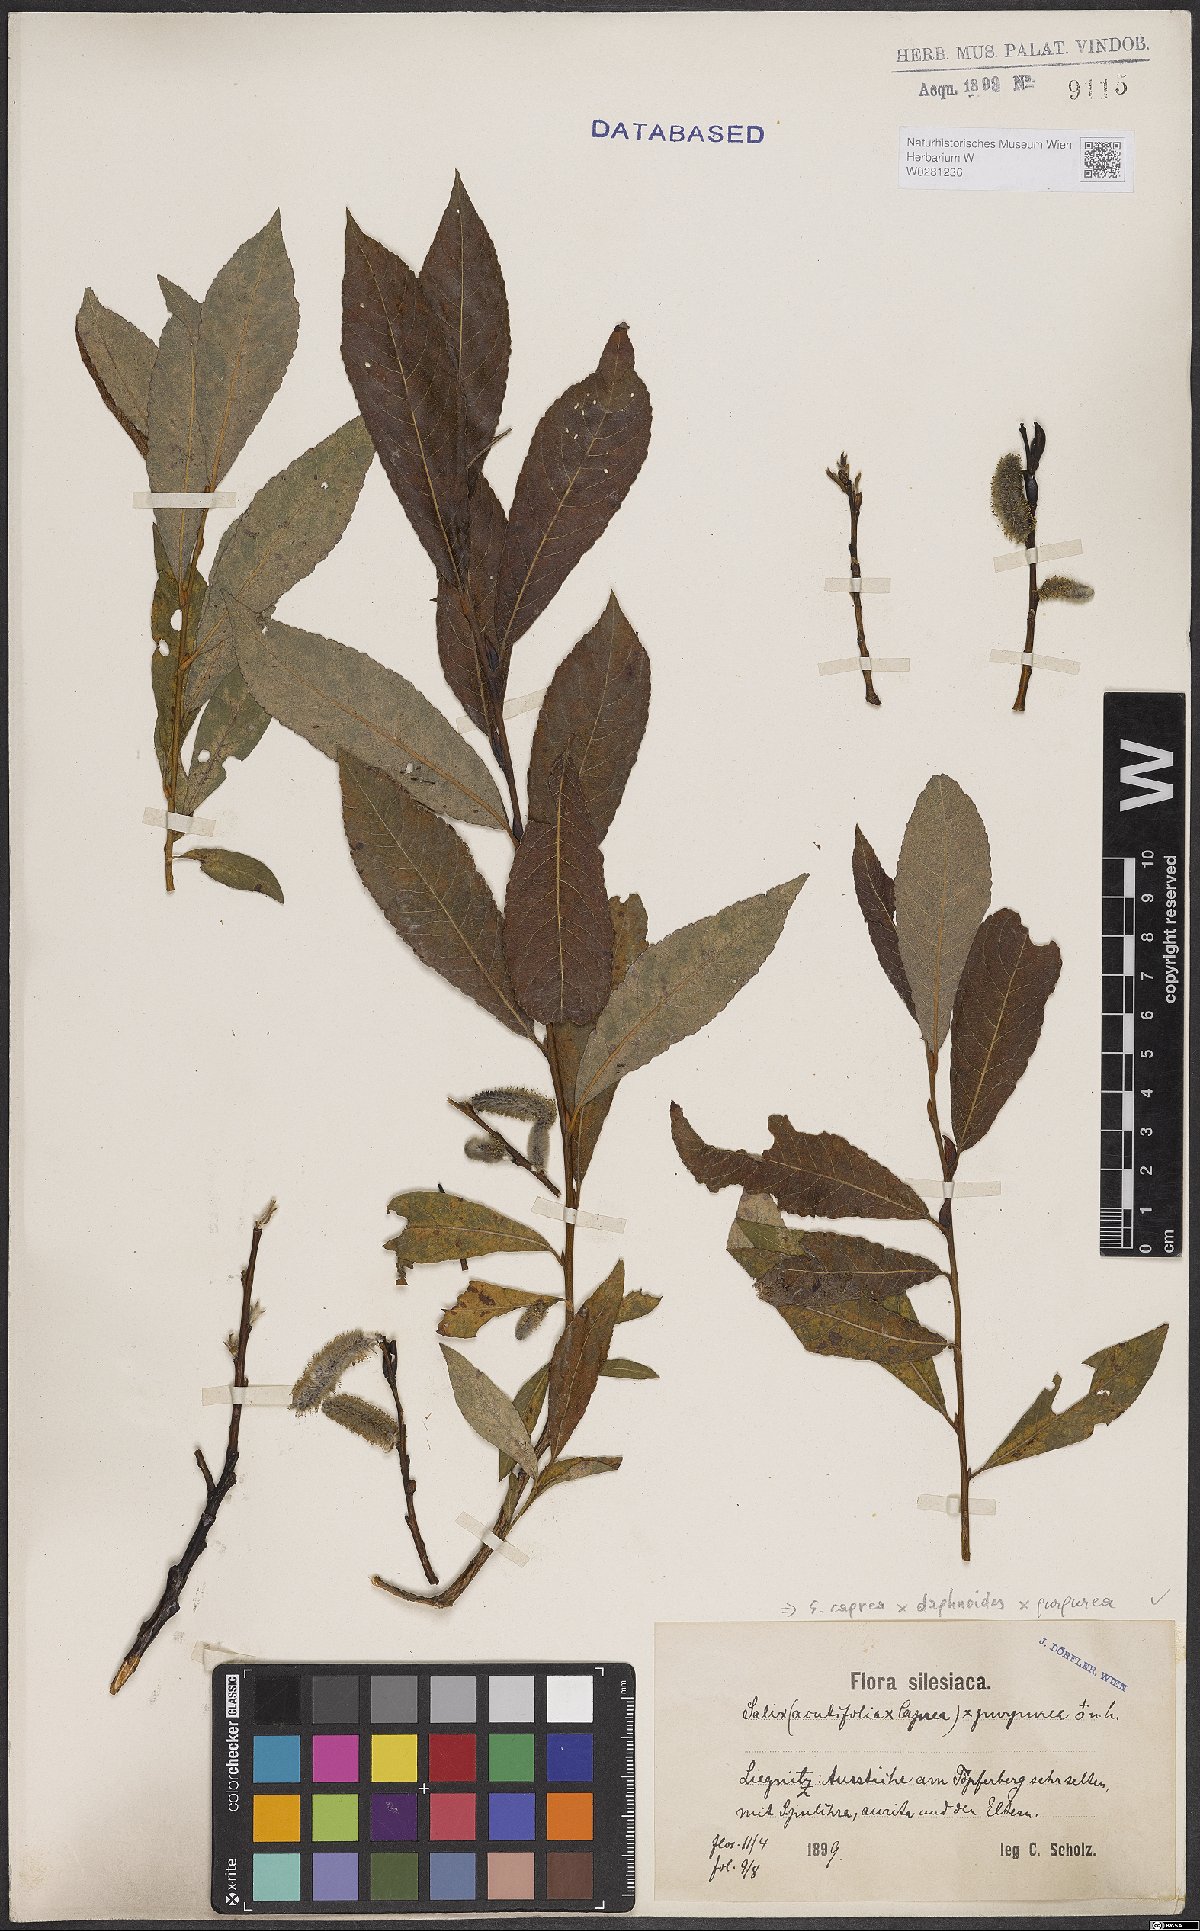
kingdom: Plantae
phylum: Tracheophyta
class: Magnoliopsida
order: Malpighiales
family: Salicaceae
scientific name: Salicaceae
